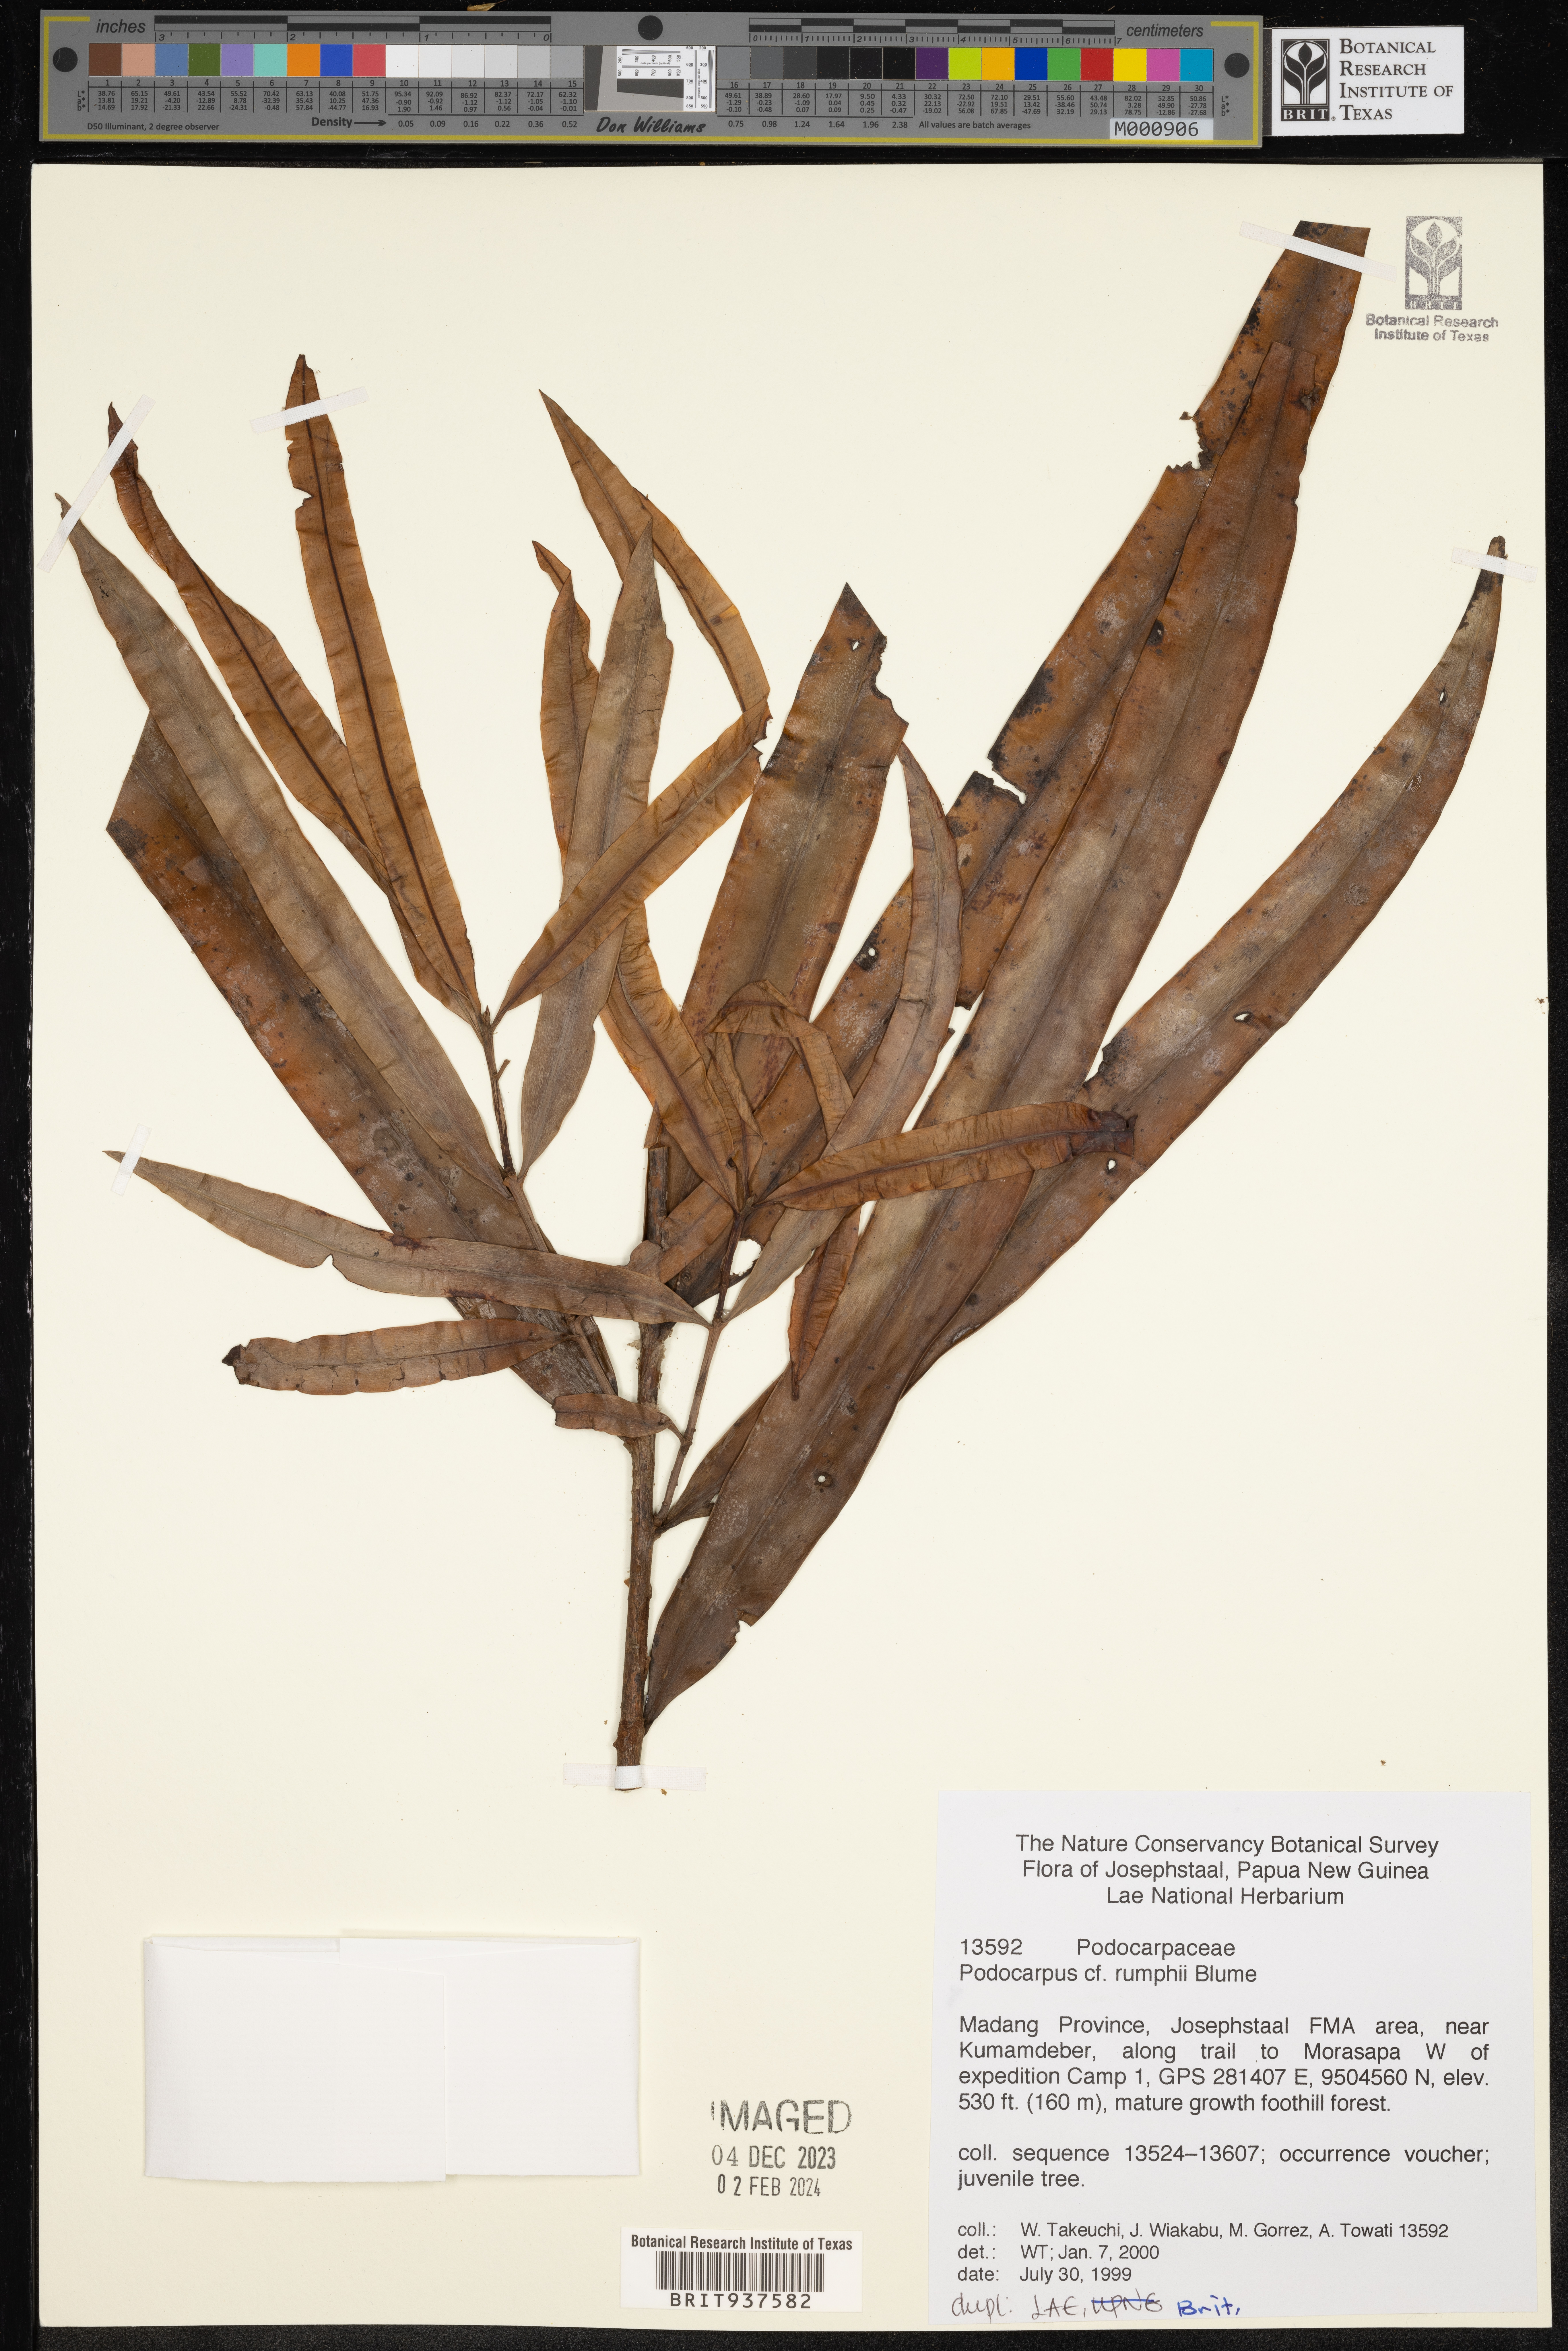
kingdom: Plantae
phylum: Tracheophyta
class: Pinopsida
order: Pinales
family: Podocarpaceae
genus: Podocarpus
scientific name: Podocarpus
